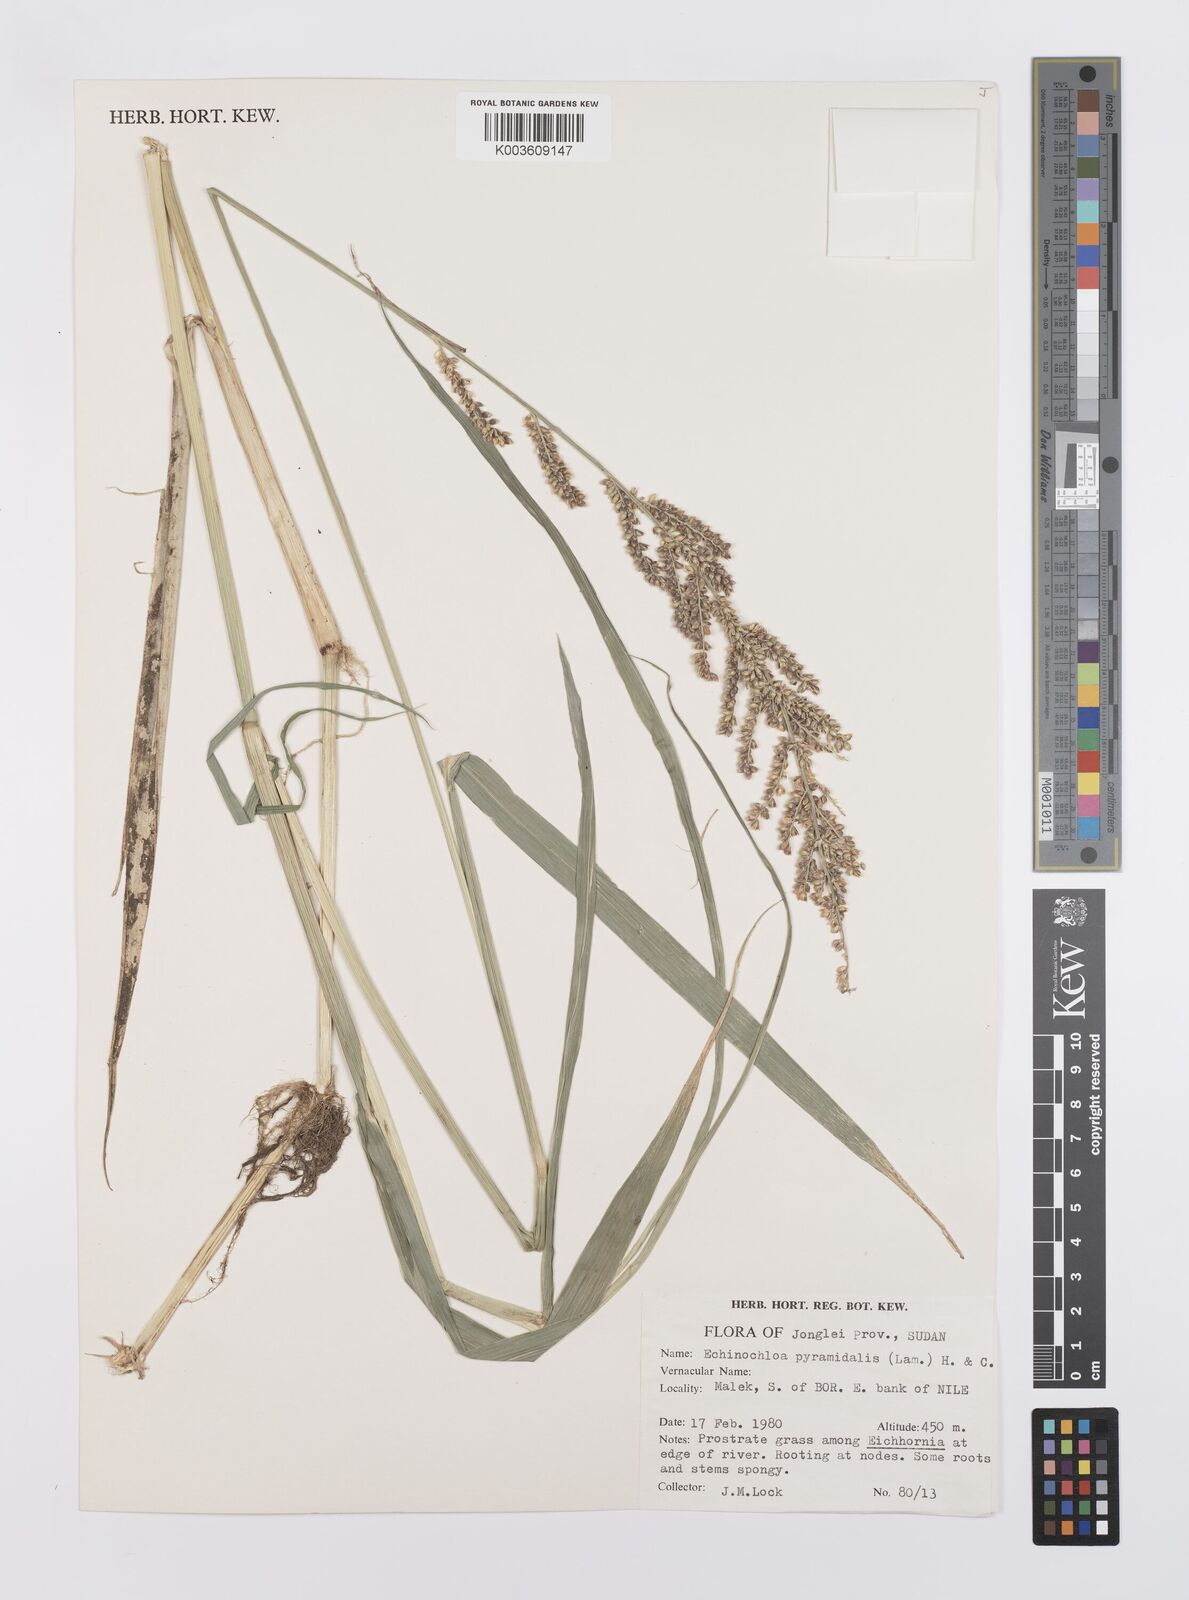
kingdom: Plantae
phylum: Tracheophyta
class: Liliopsida
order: Poales
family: Poaceae
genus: Echinochloa
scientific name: Echinochloa pyramidalis
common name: Antelope grass
